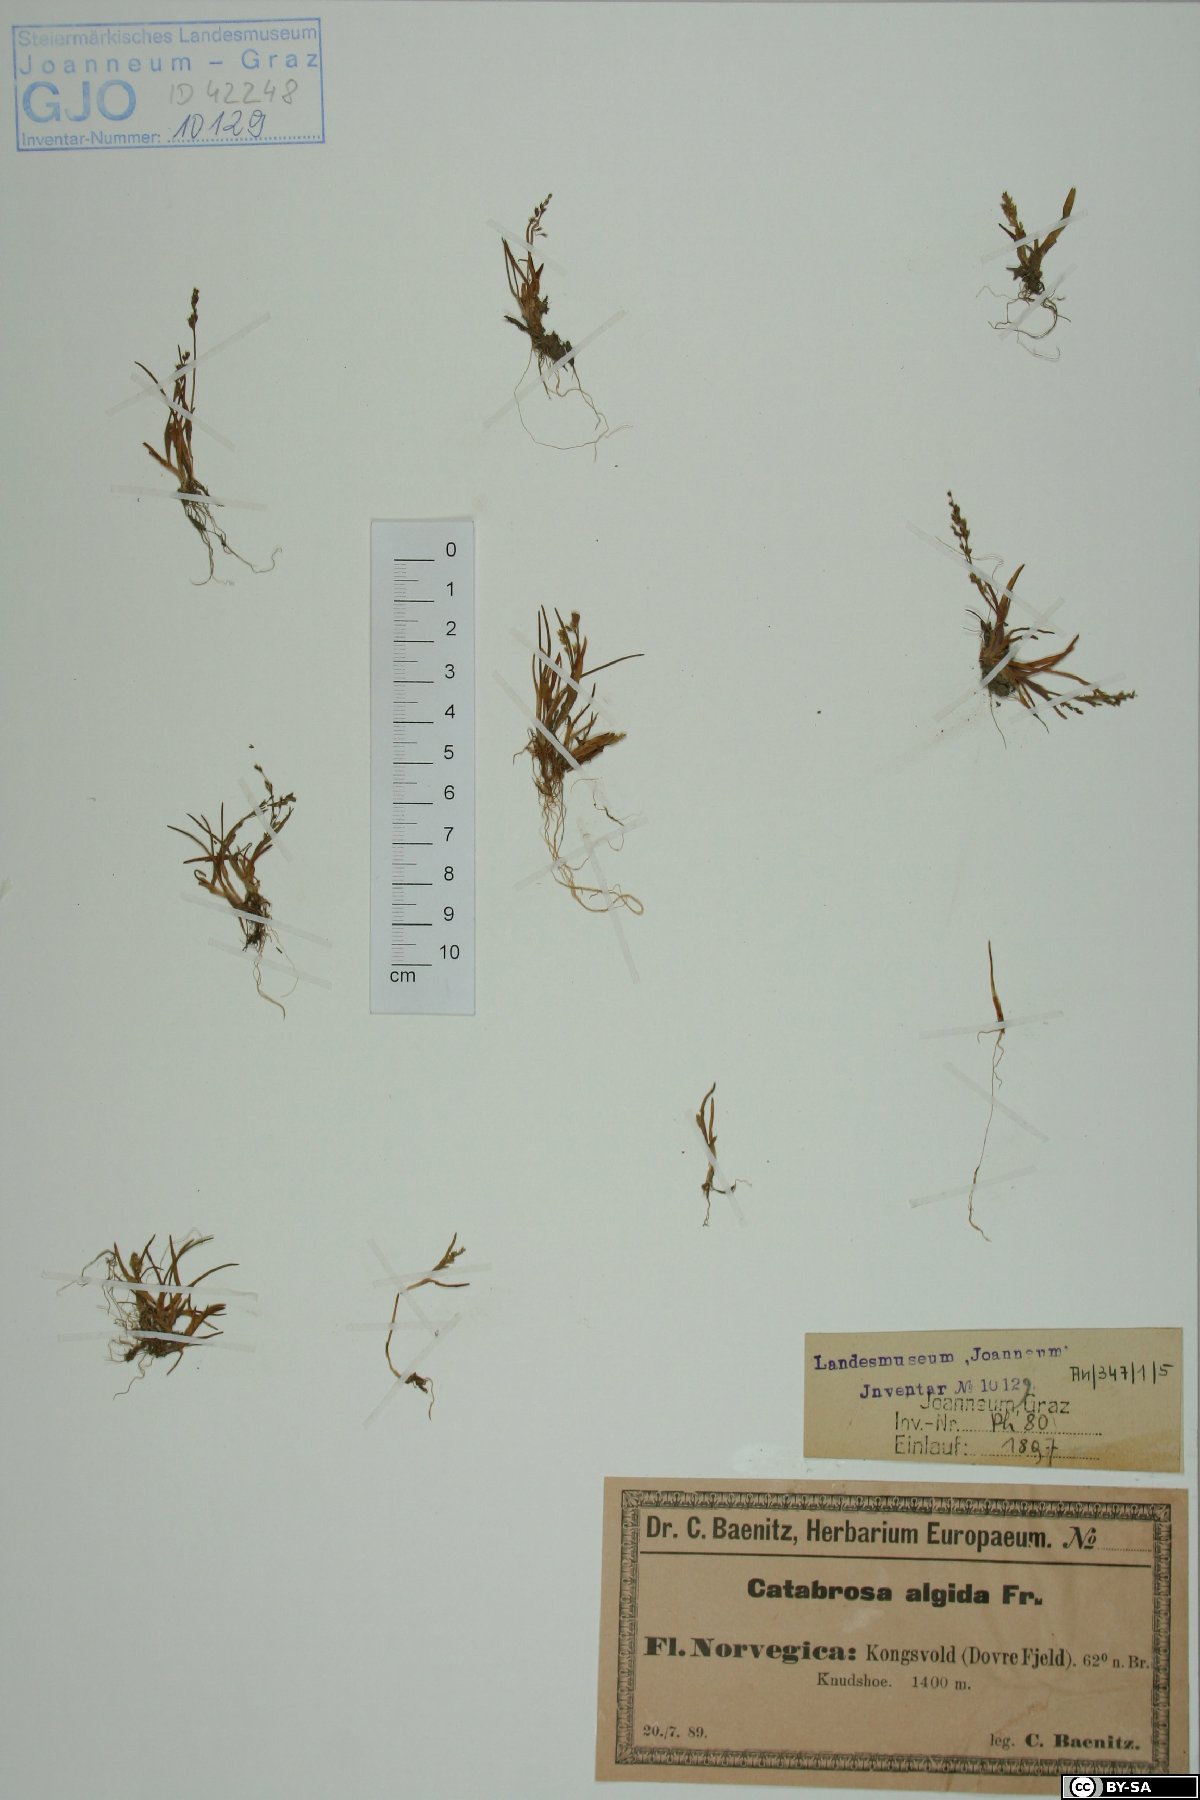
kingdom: Plantae
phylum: Tracheophyta
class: Liliopsida
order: Poales
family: Poaceae
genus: Phippsia
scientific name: Phippsia algida
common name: Ice grass
